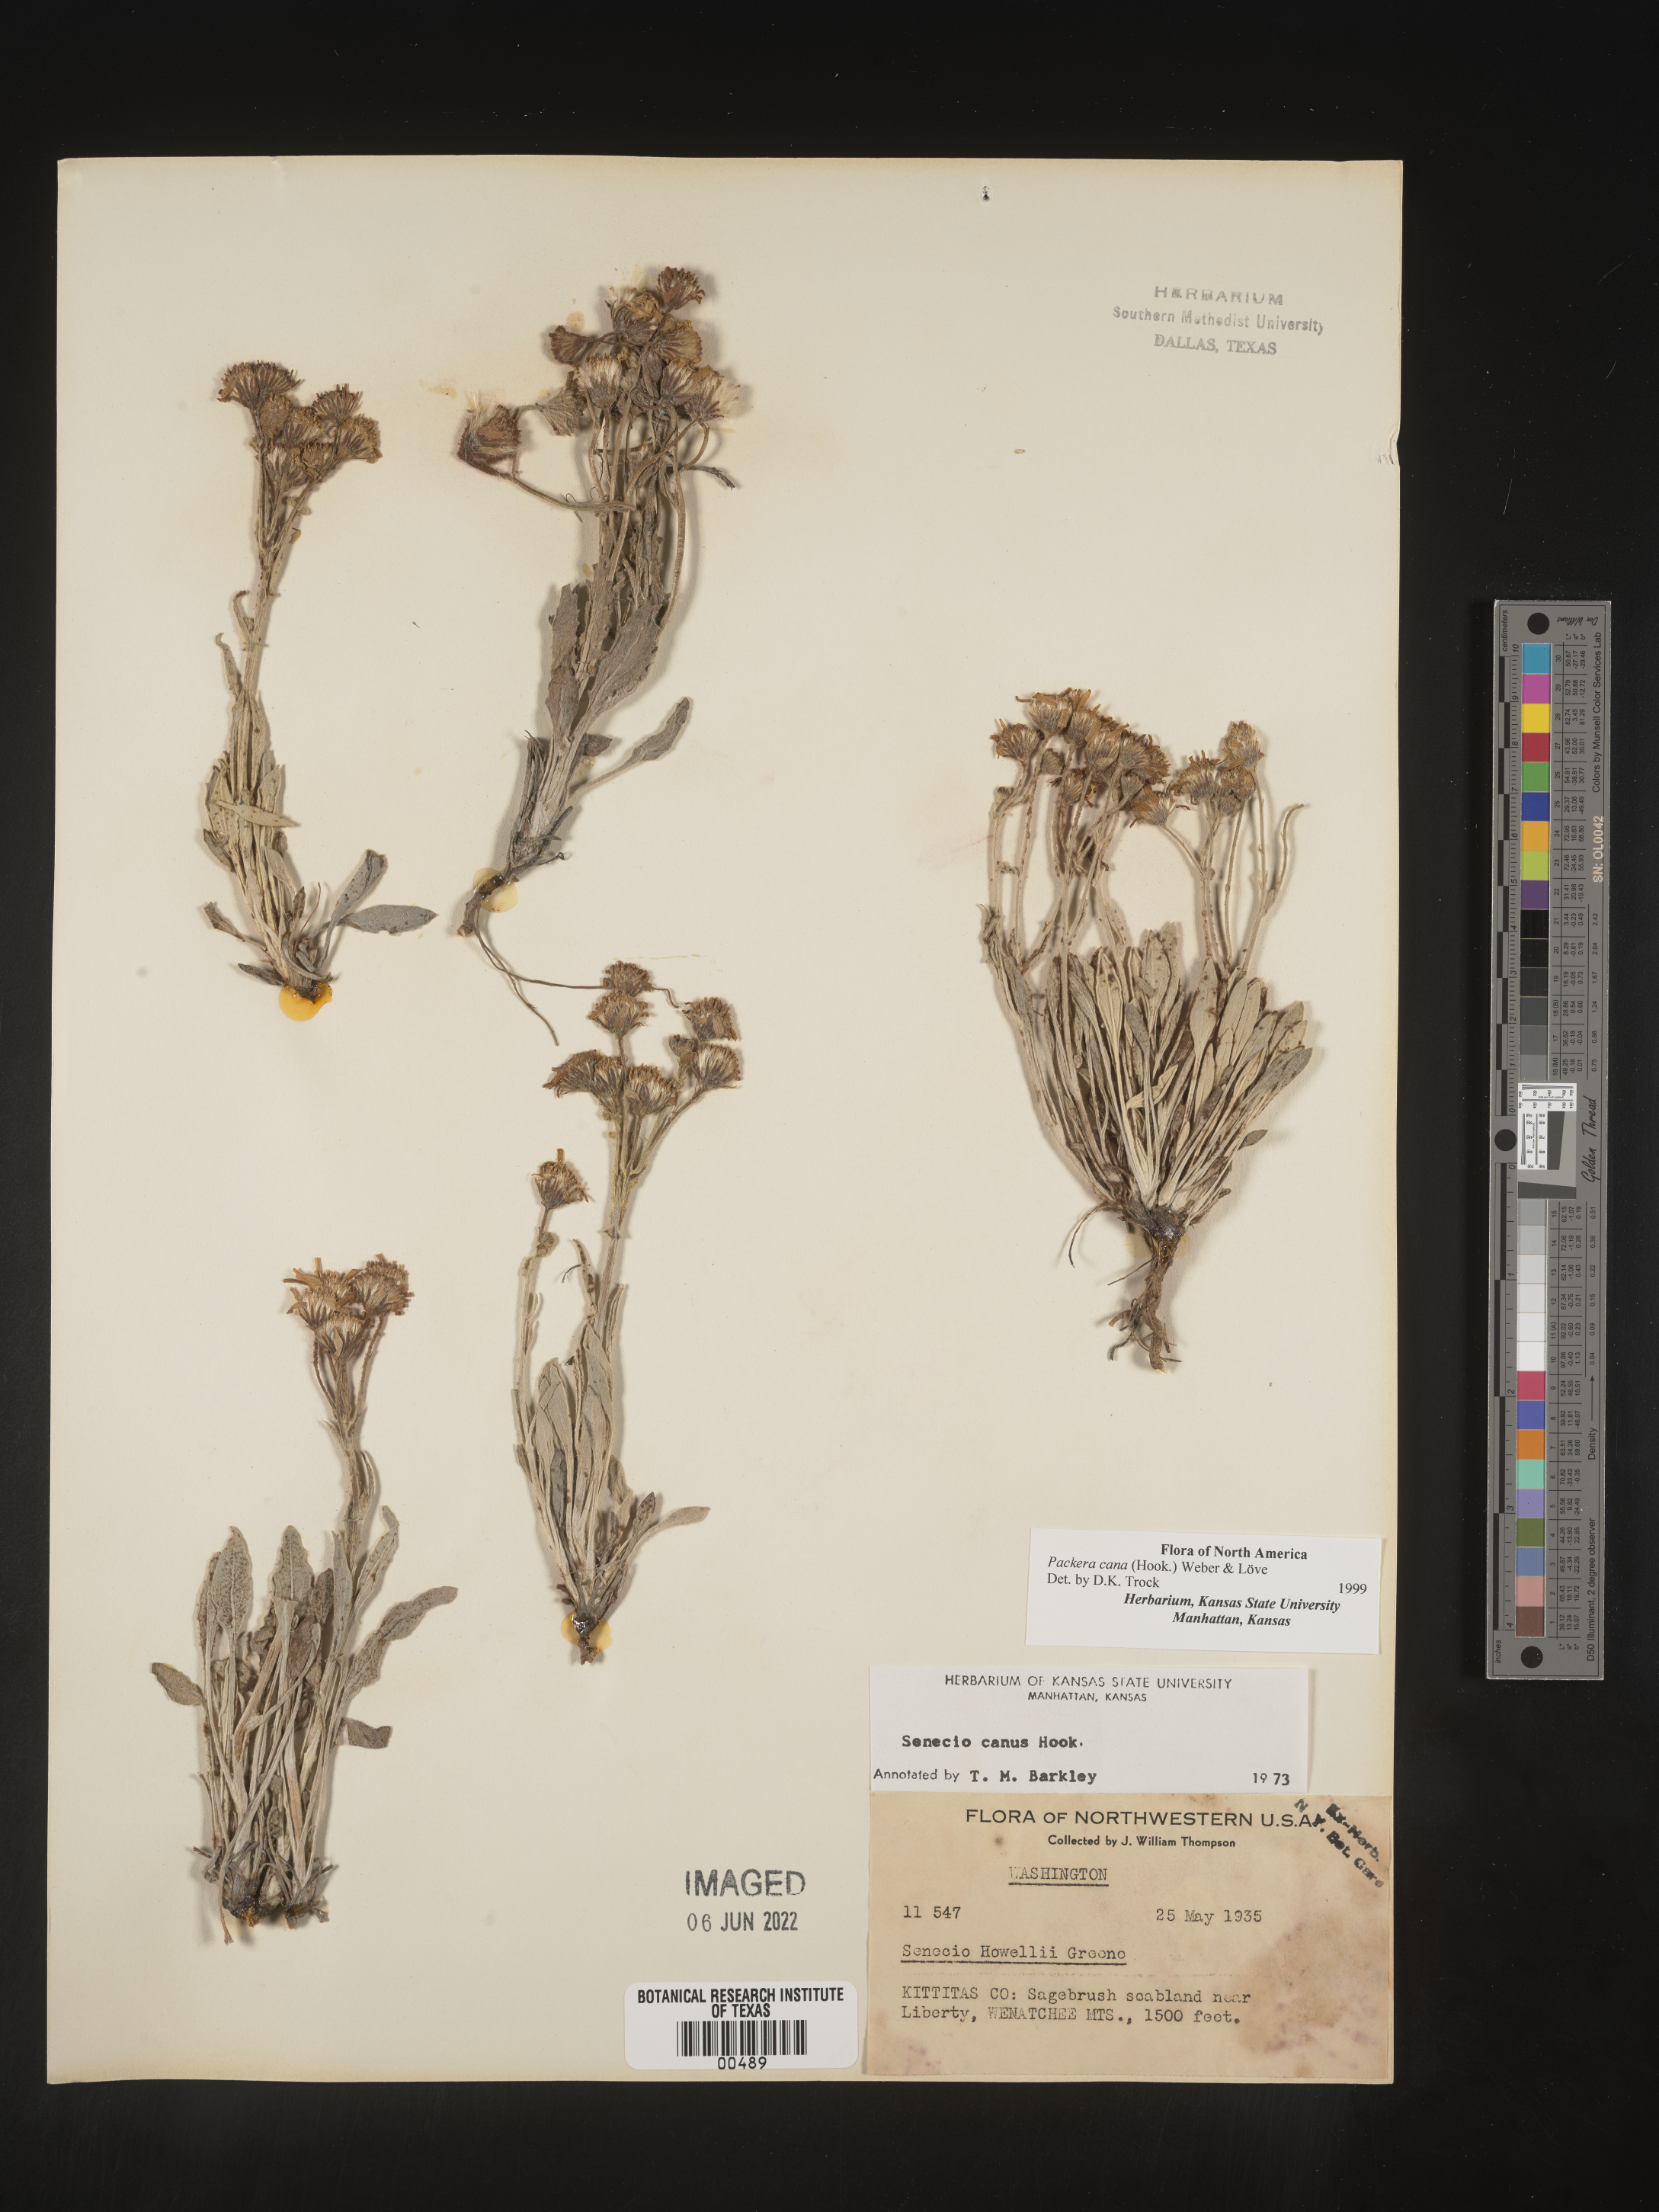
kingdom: Plantae
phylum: Tracheophyta
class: Magnoliopsida
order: Asterales
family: Asteraceae
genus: Packera
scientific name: Packera cana
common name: Woolly groundsel
